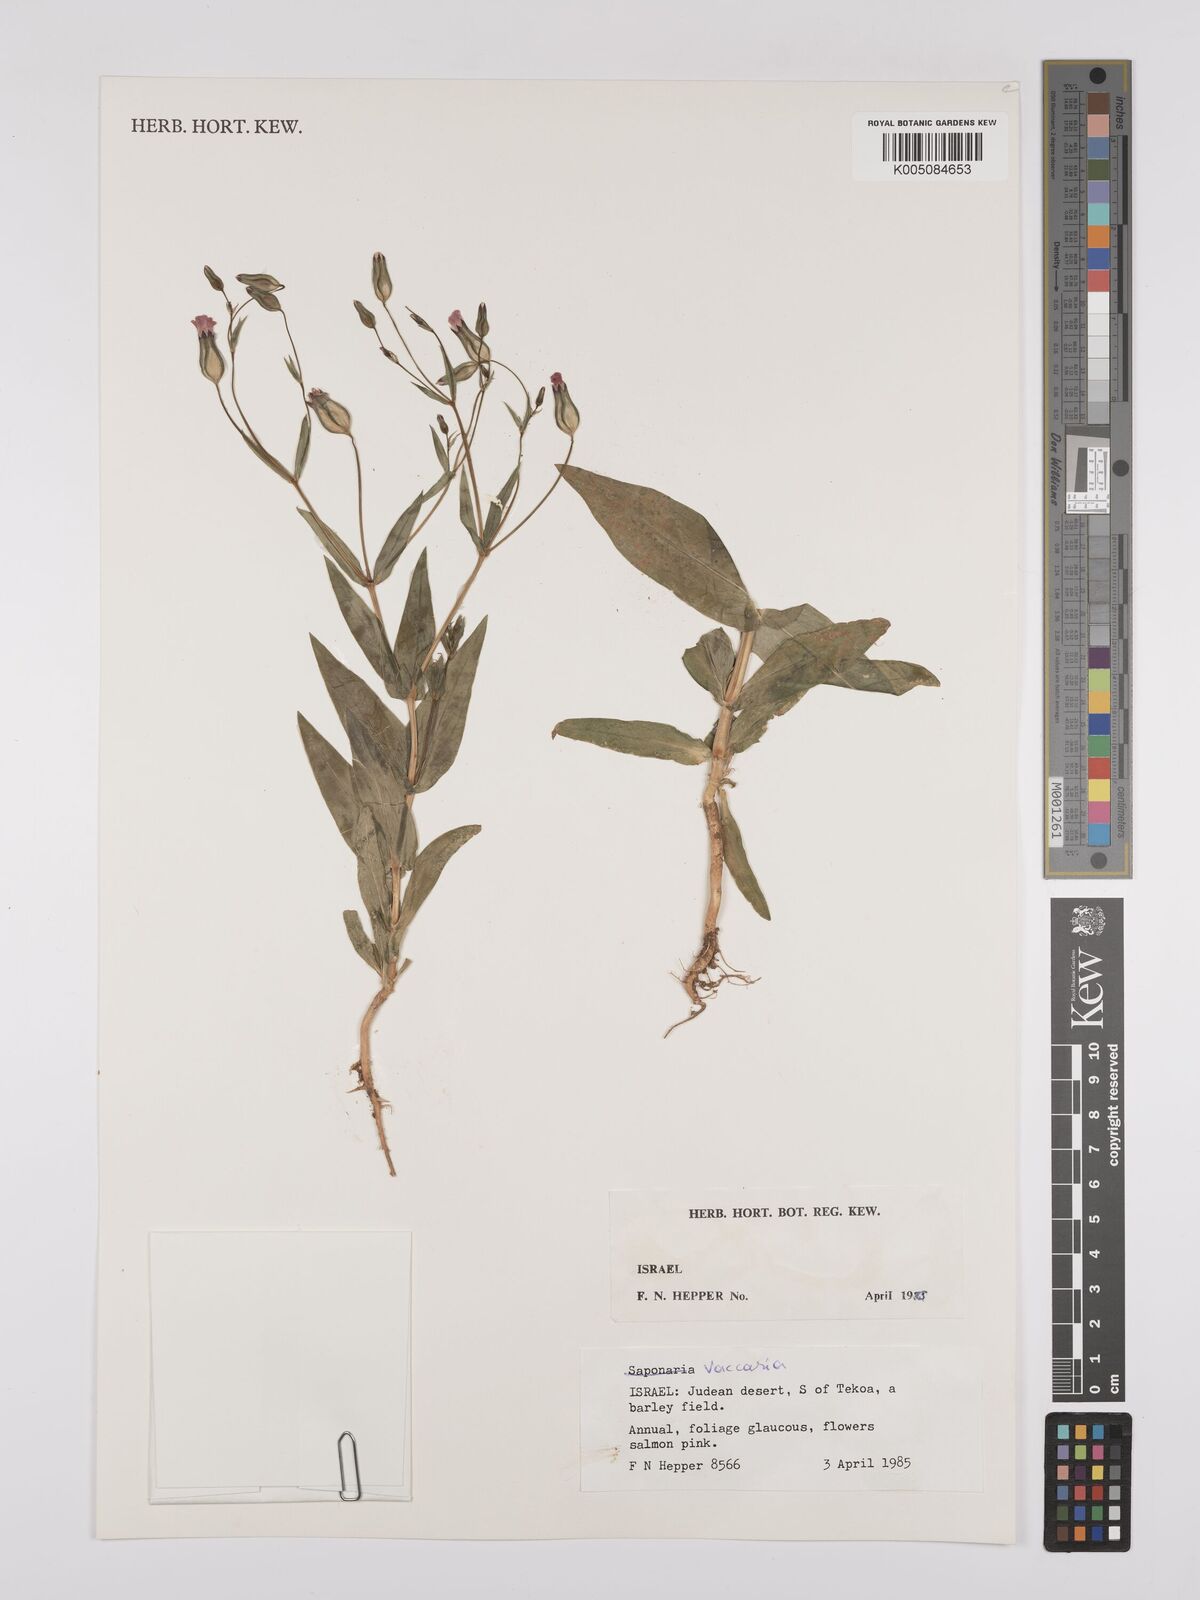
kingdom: Plantae
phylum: Tracheophyta
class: Magnoliopsida
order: Caryophyllales
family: Caryophyllaceae
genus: Vaccaria
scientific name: Vaccaria
